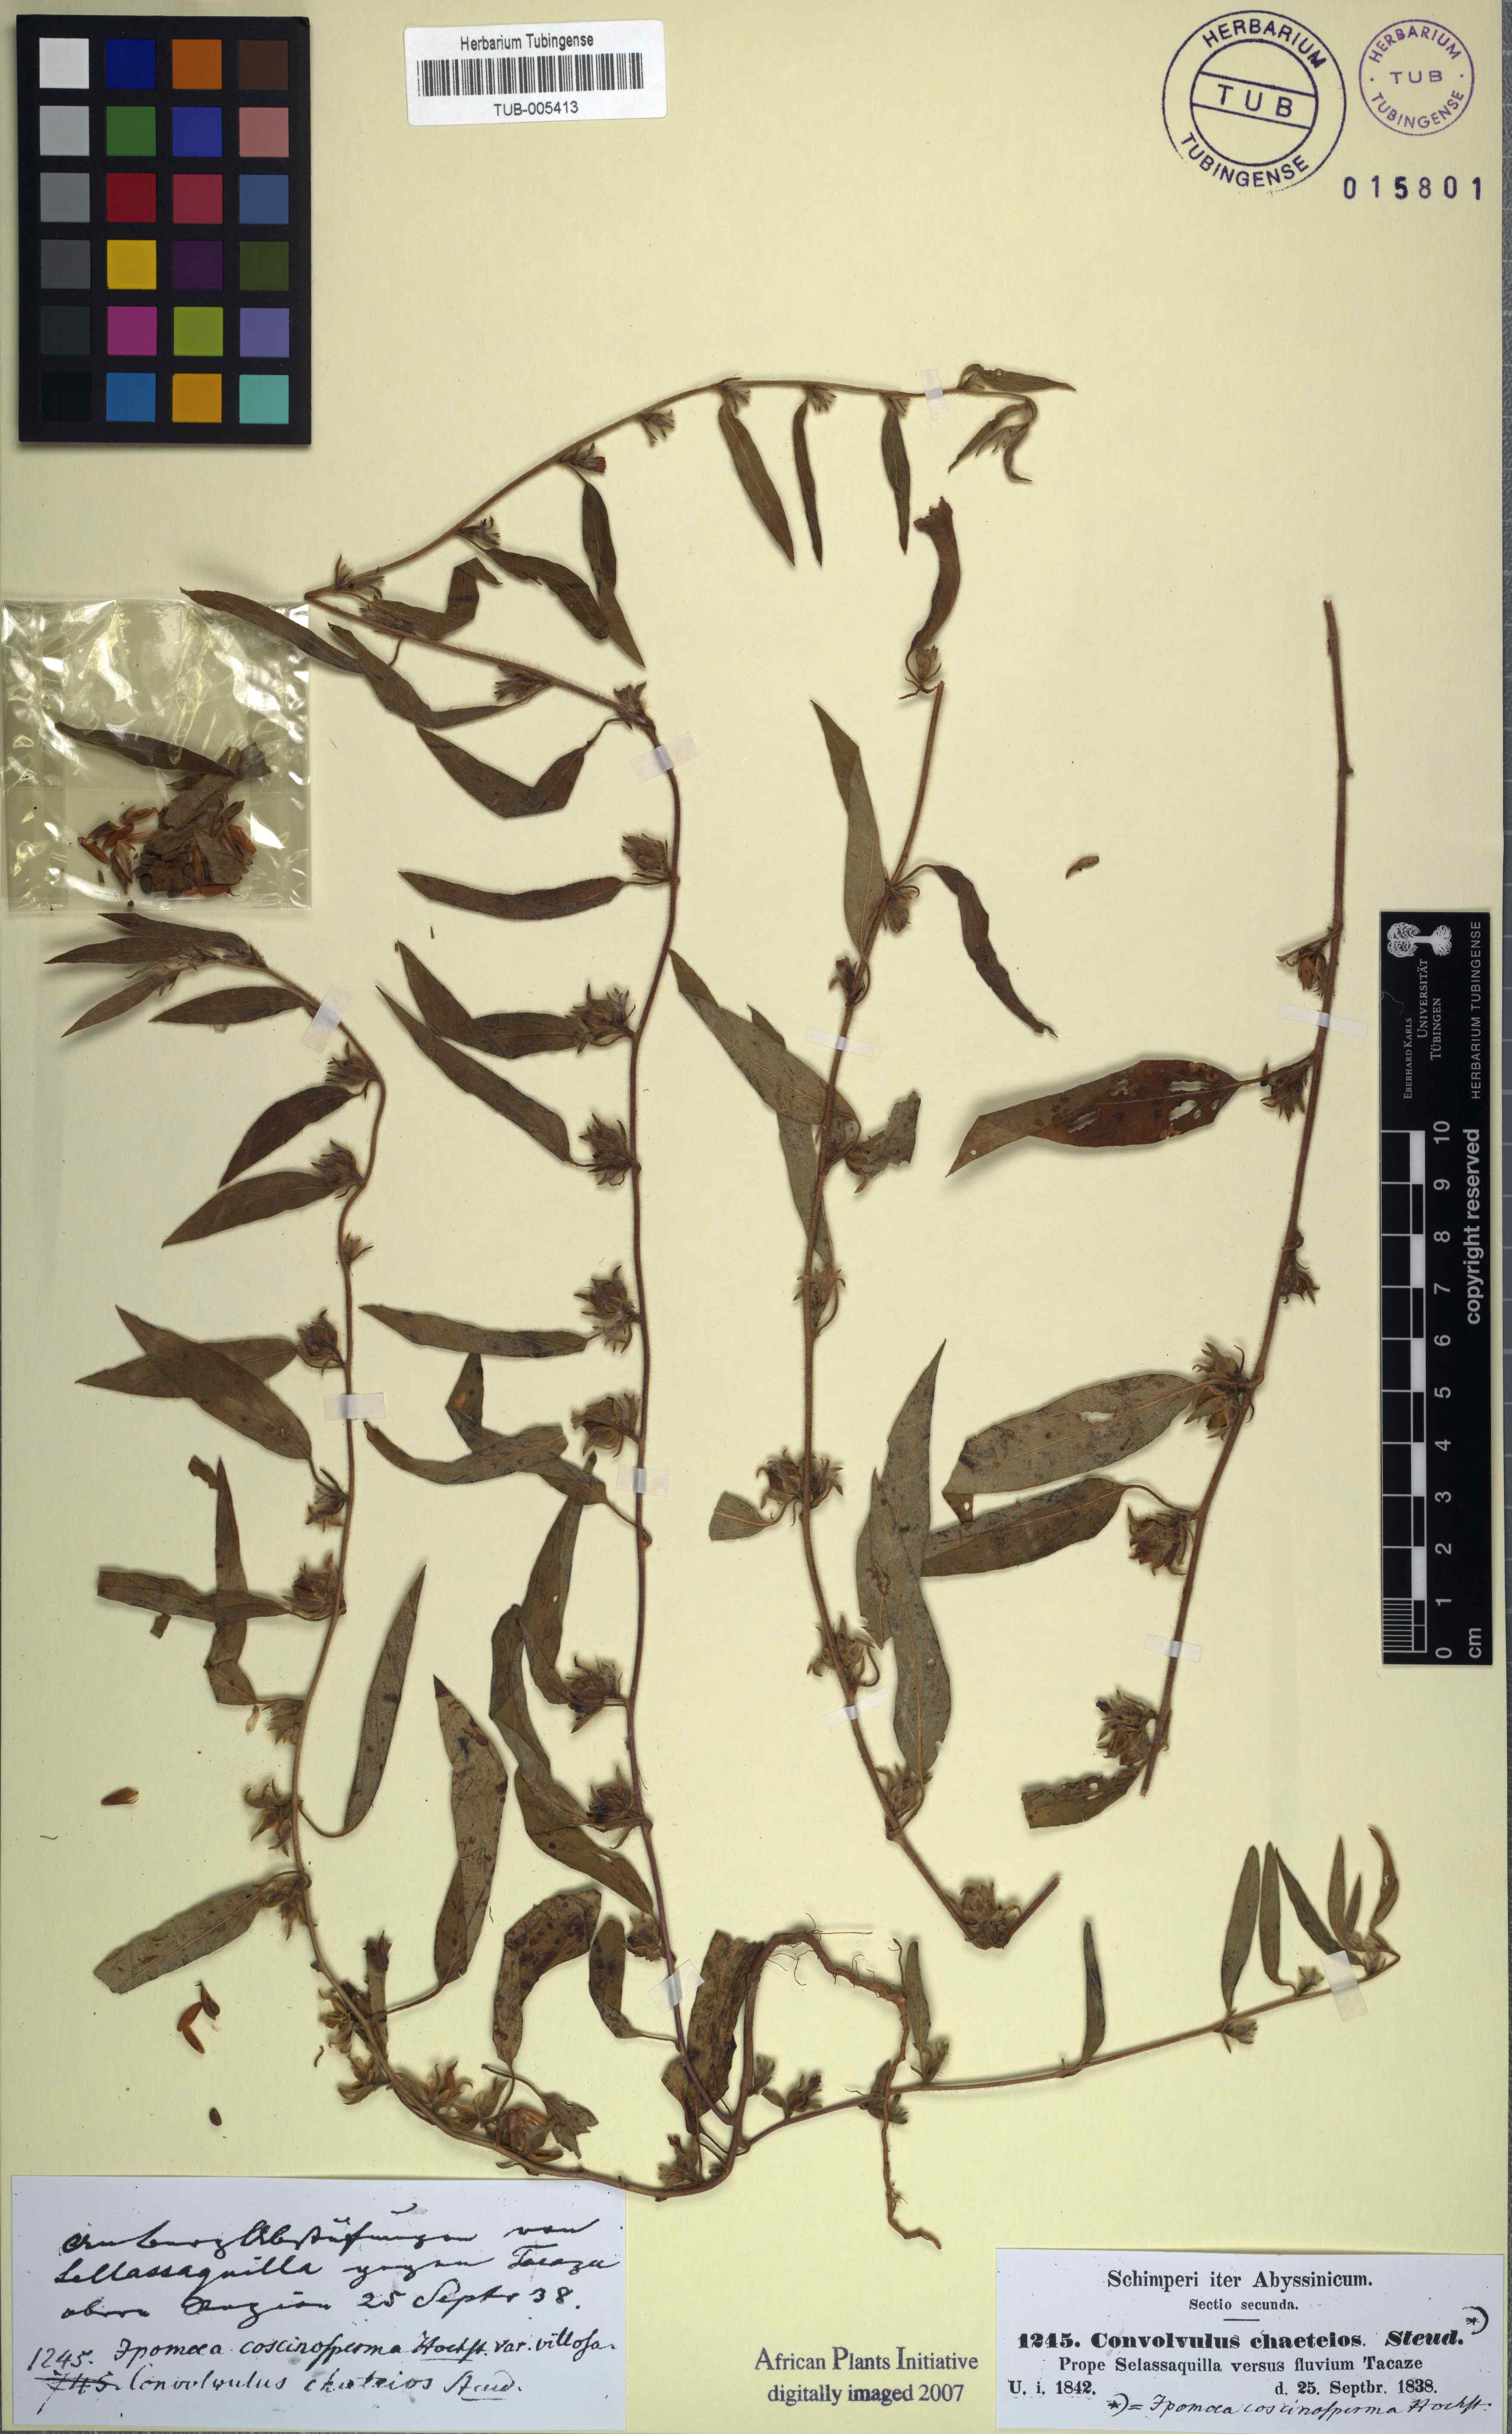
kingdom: Plantae
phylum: Tracheophyta
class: Magnoliopsida
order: Solanales
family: Convolvulaceae
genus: Convolvulus
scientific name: Convolvulus
